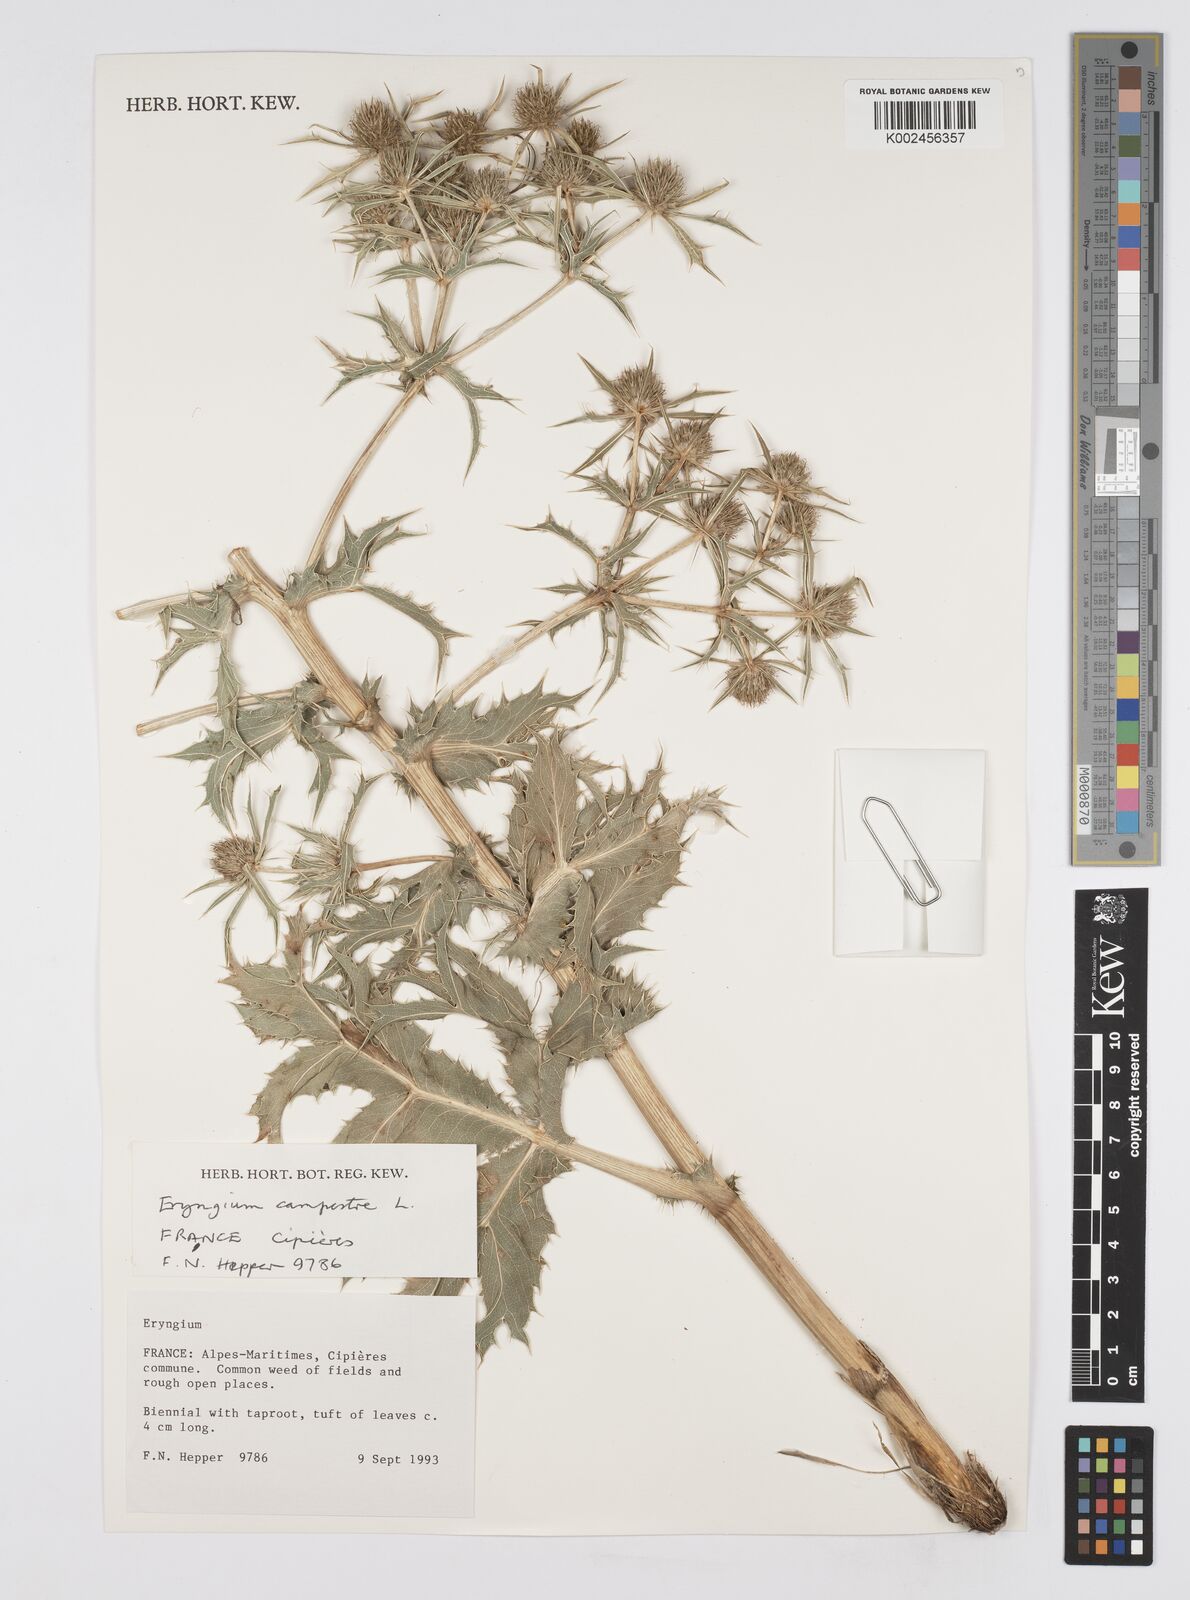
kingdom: Plantae
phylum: Tracheophyta
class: Magnoliopsida
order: Apiales
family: Apiaceae
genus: Eryngium
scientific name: Eryngium campestre
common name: Field eryngo
